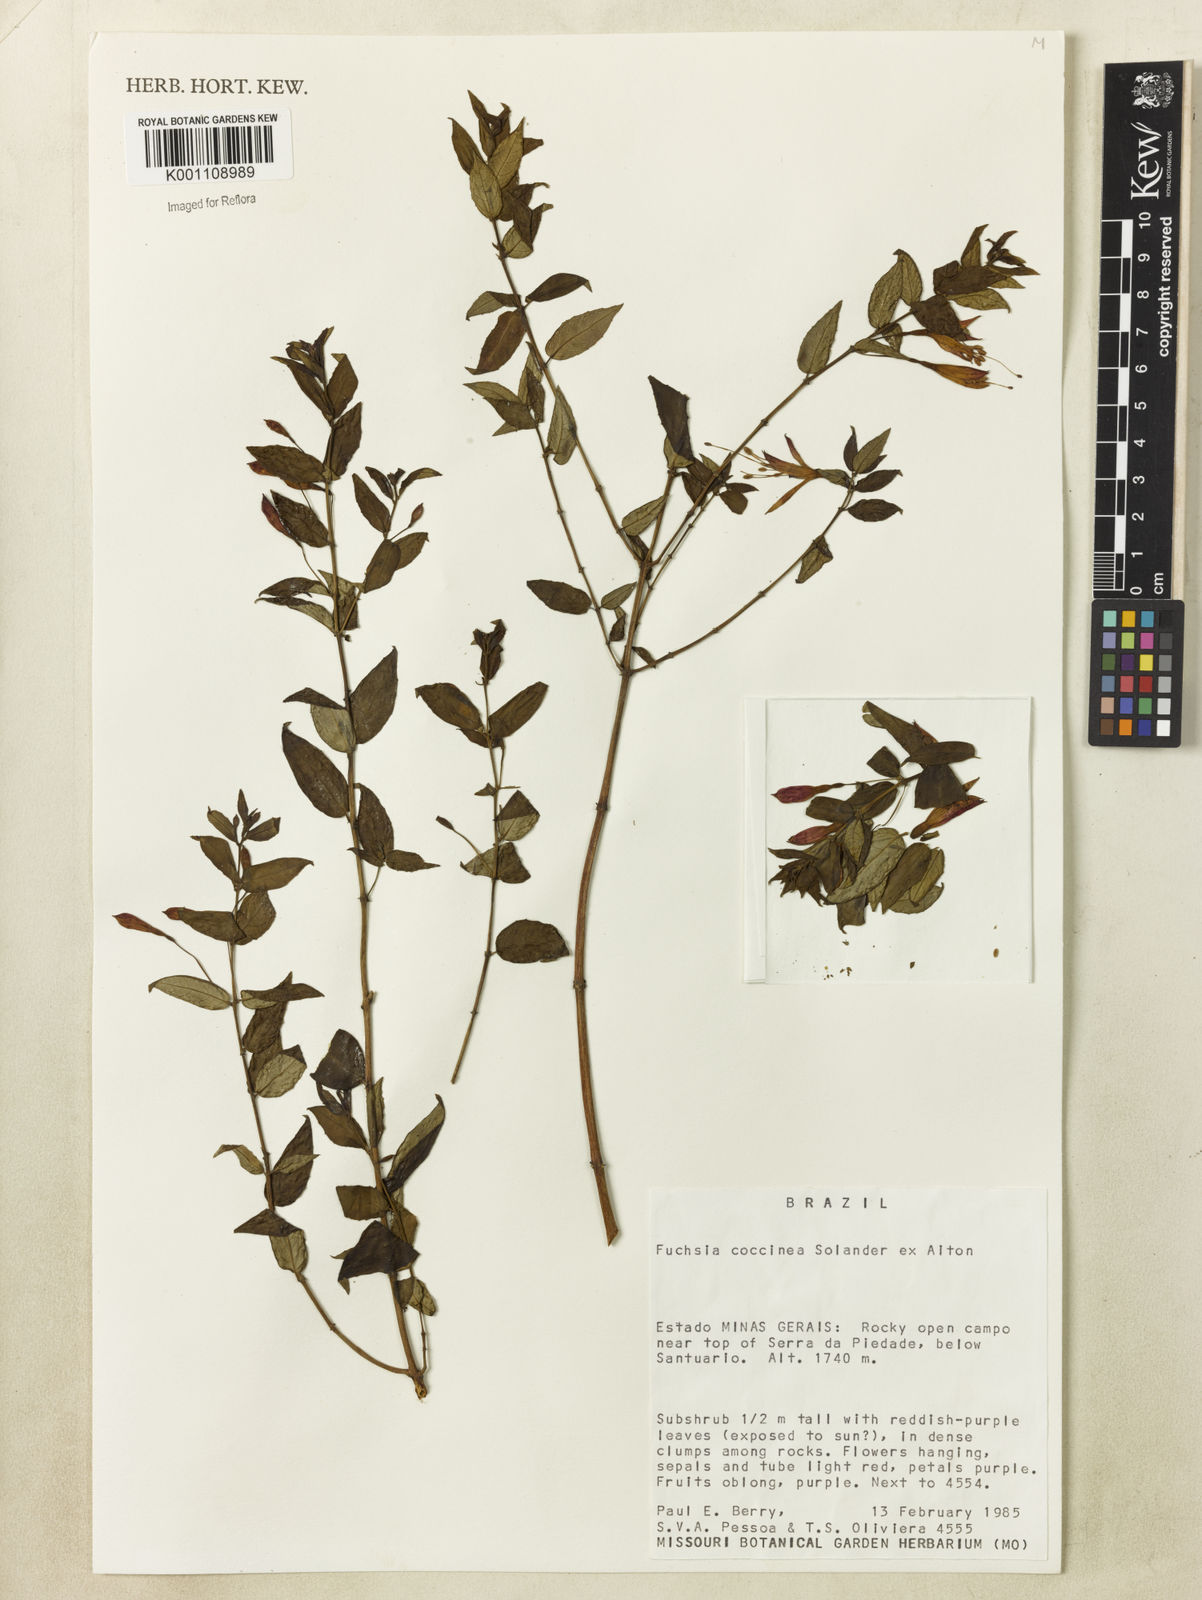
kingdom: Plantae
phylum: Tracheophyta
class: Magnoliopsida
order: Myrtales
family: Onagraceae
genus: Fuchsia
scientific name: Fuchsia
